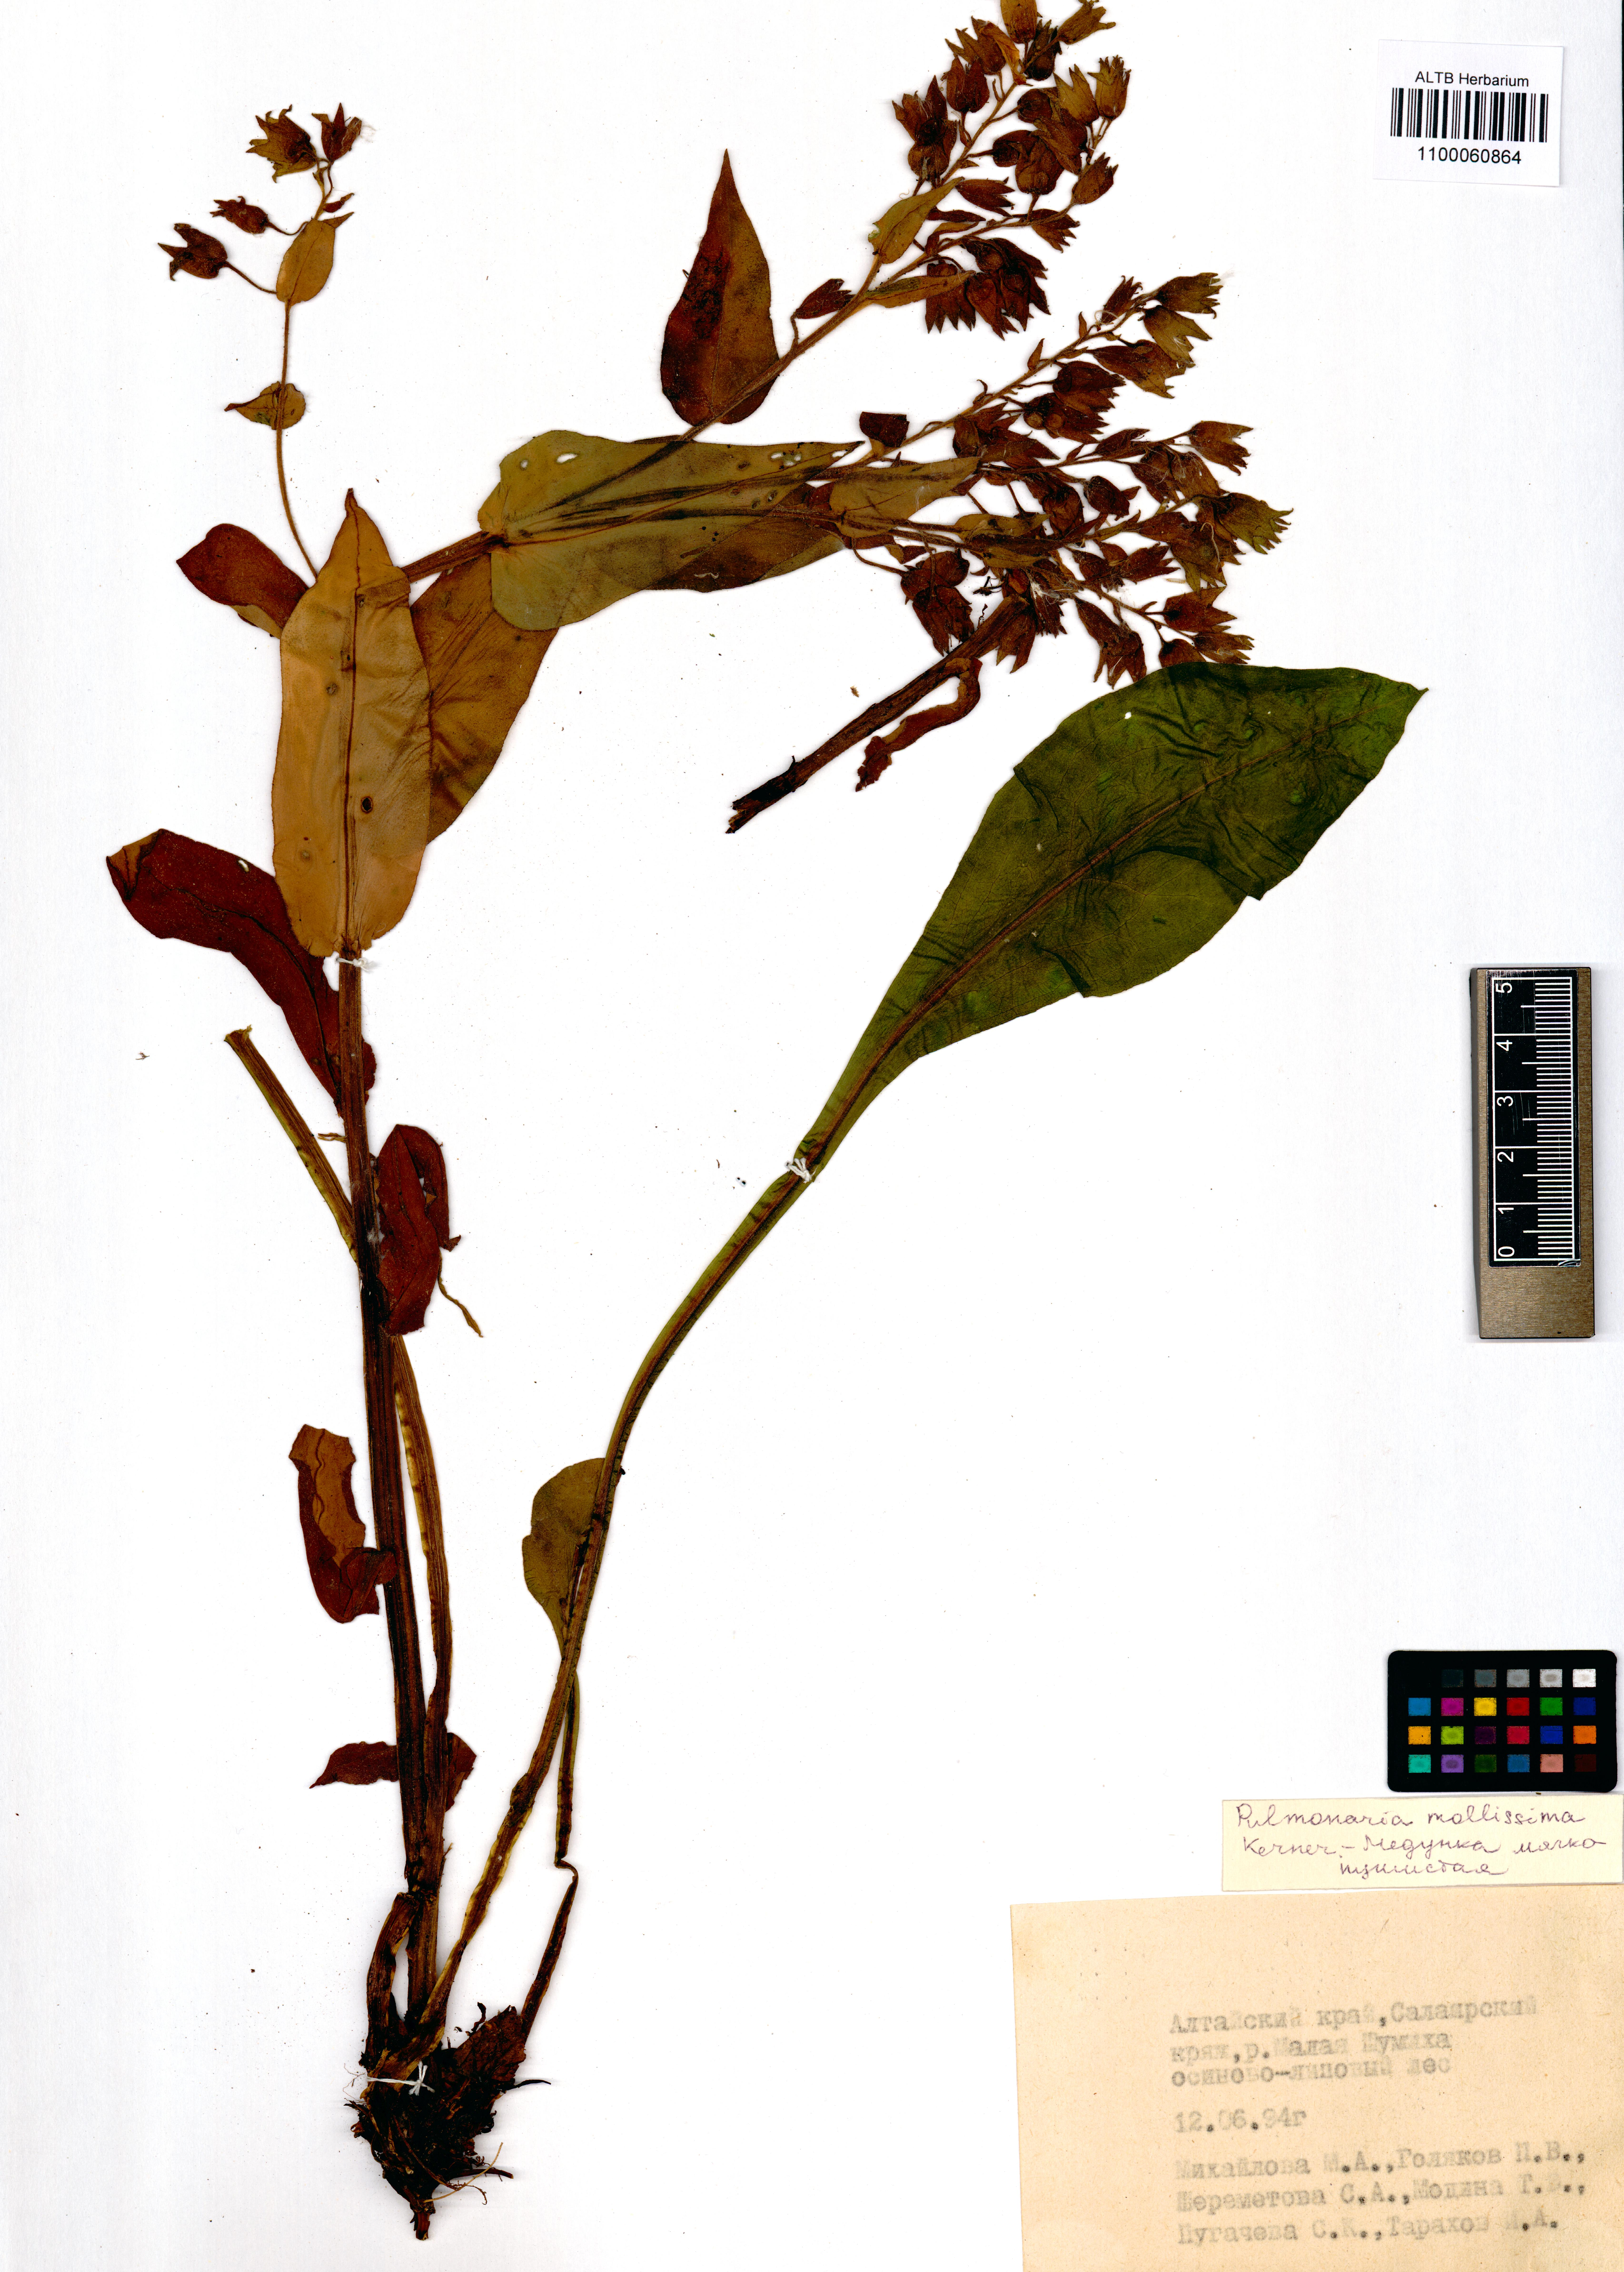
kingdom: Plantae
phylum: Tracheophyta
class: Magnoliopsida
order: Boraginales
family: Boraginaceae
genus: Pulmonaria
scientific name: Pulmonaria mollis
